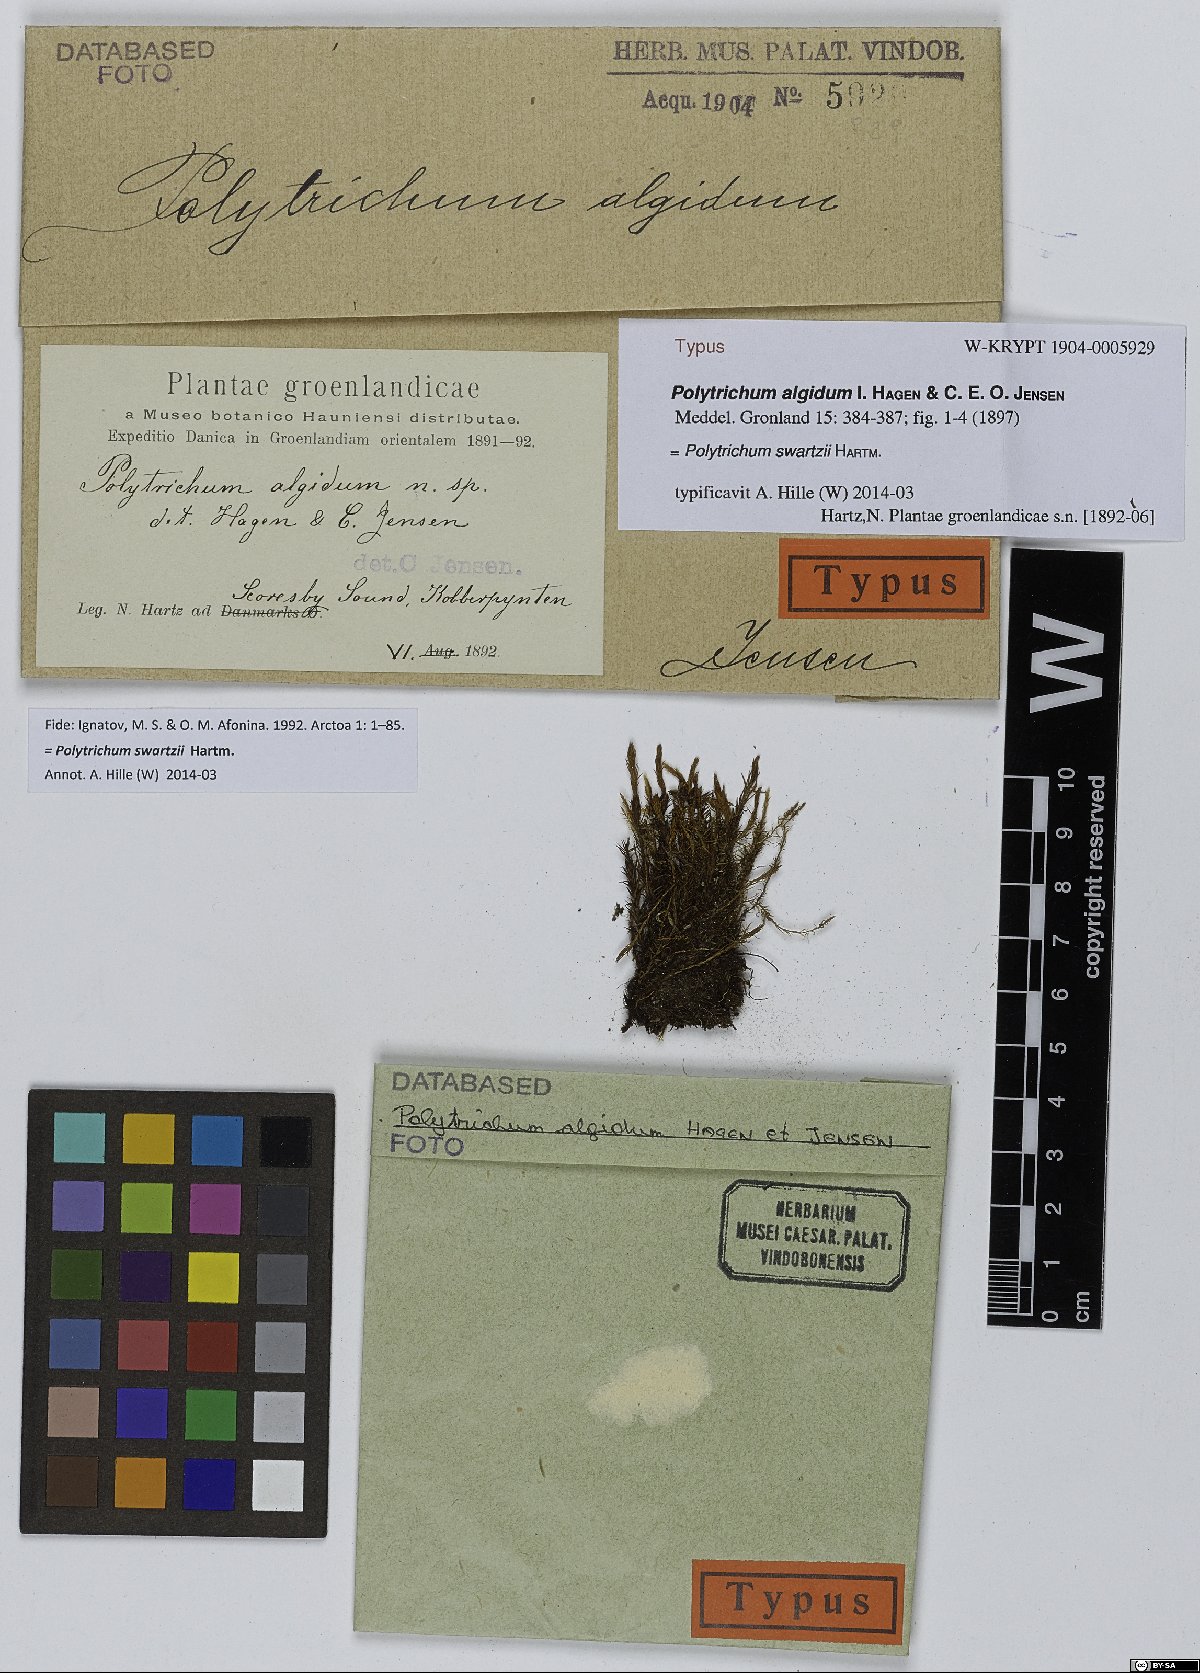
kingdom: Plantae
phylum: Bryophyta
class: Polytrichopsida
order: Polytrichales
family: Polytrichaceae
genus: Polytrichum
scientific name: Polytrichum swartzii
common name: Swartz's haircap moss
